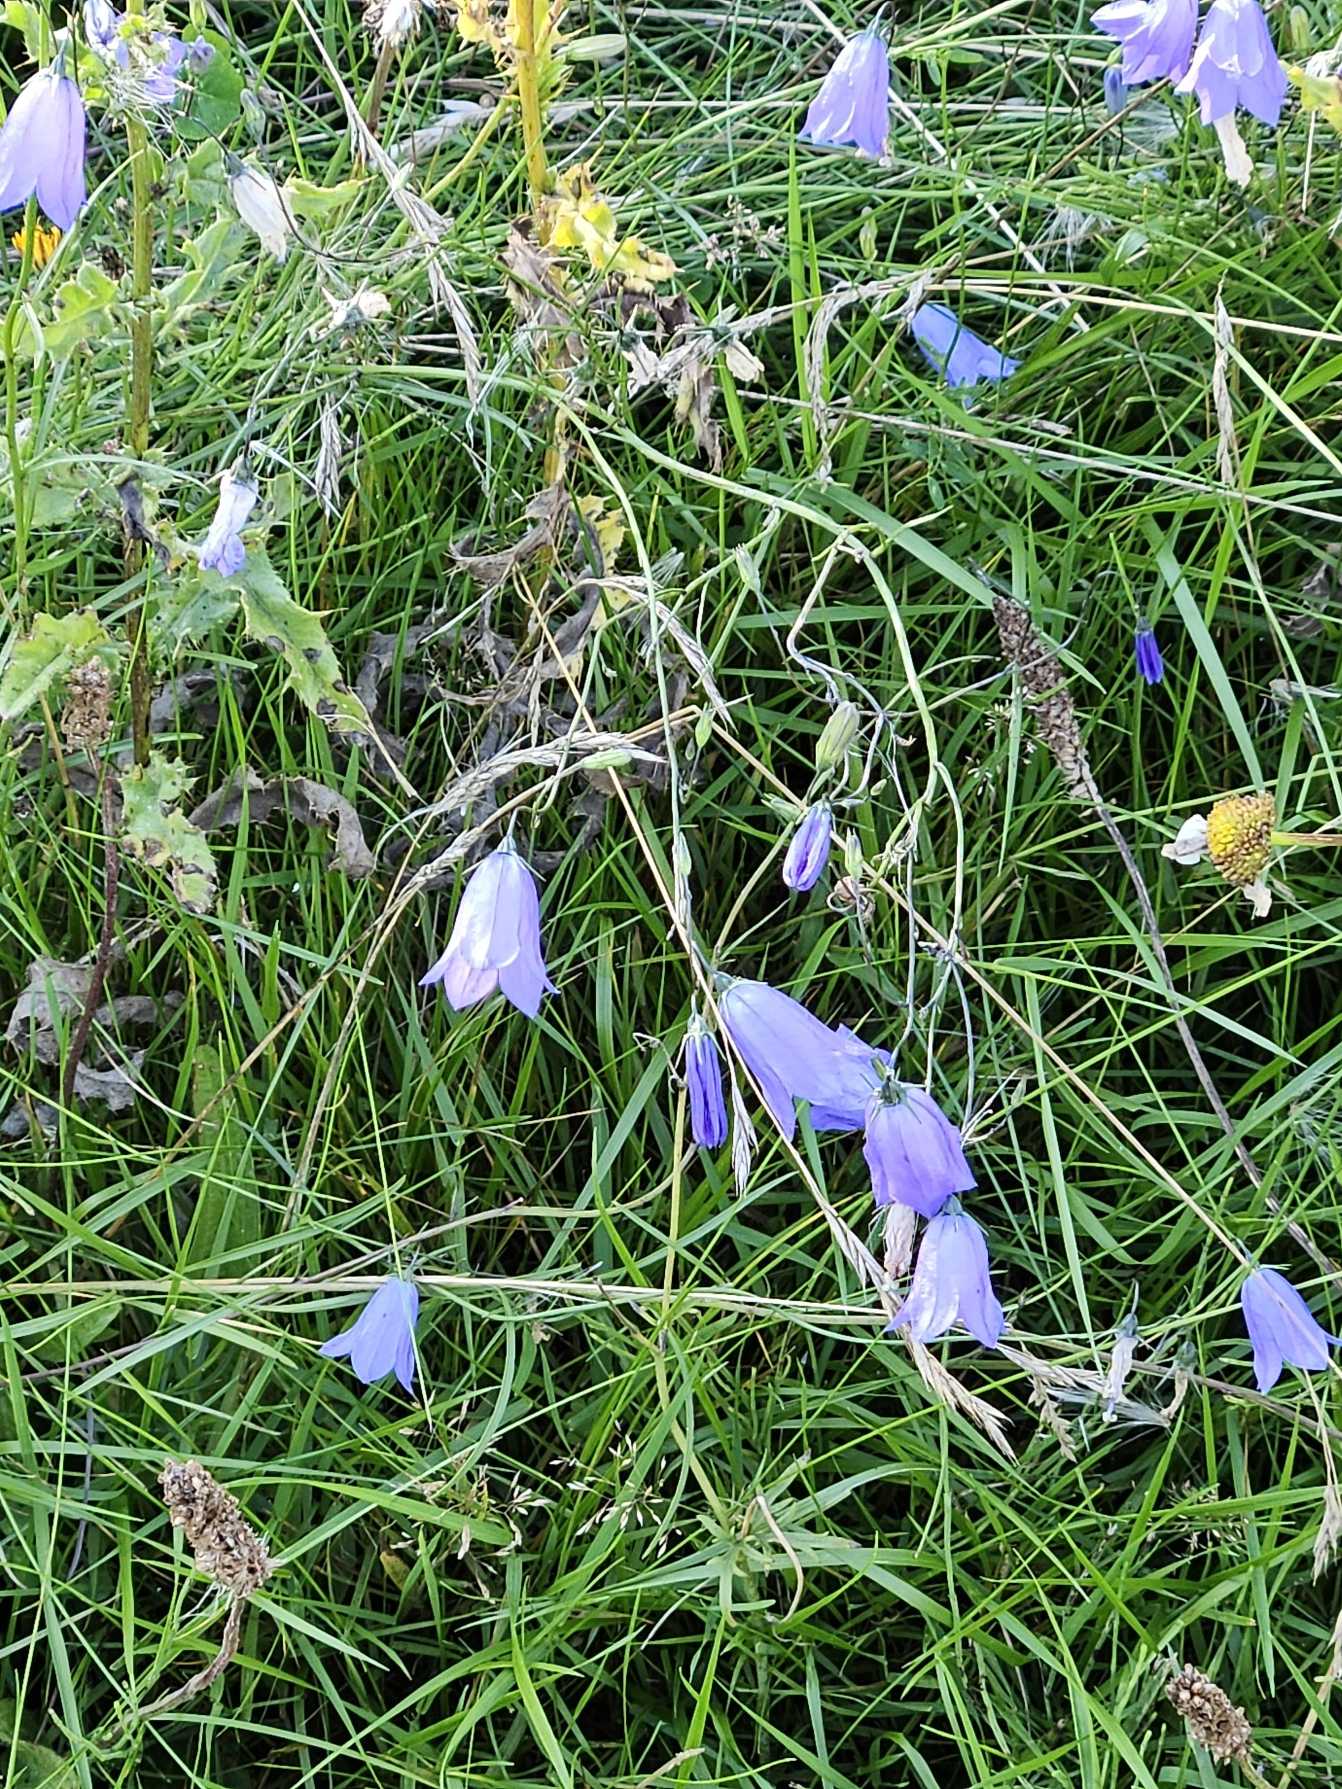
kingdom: Plantae
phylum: Tracheophyta
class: Magnoliopsida
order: Asterales
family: Campanulaceae
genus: Campanula
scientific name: Campanula rotundifolia
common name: Liden klokke
